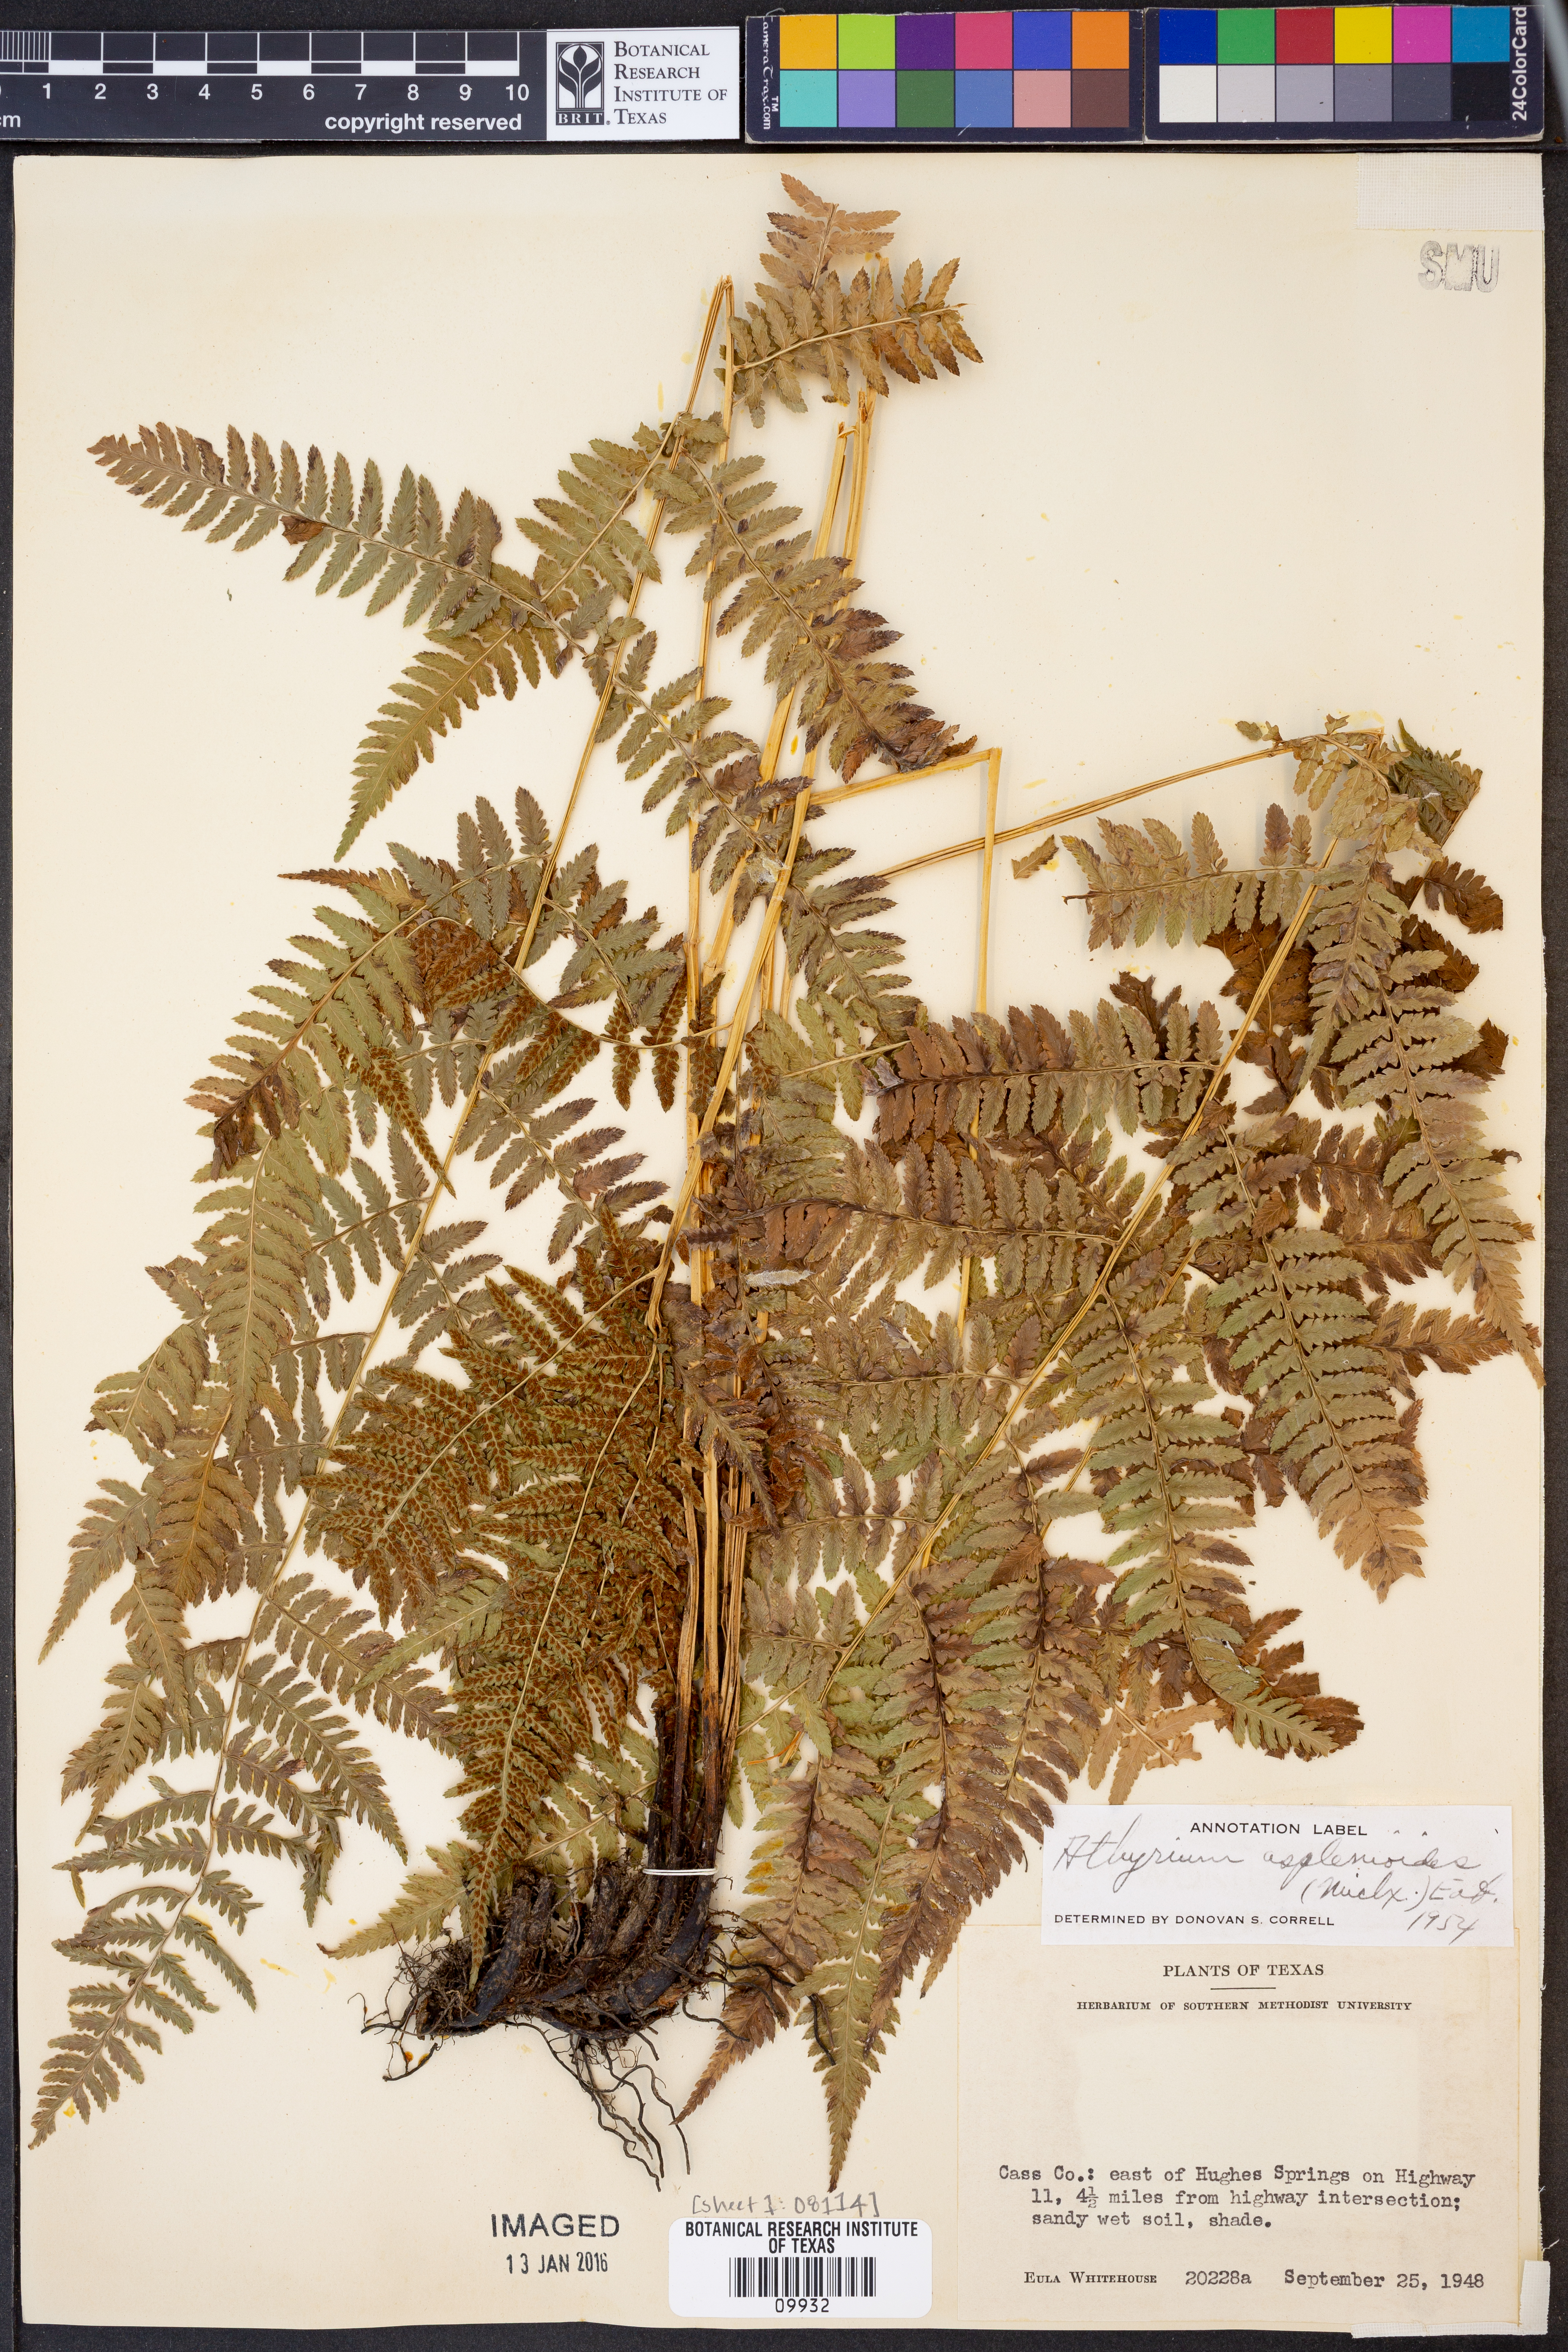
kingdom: Plantae
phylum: Tracheophyta
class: Polypodiopsida
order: Polypodiales
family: Athyriaceae
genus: Athyrium
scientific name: Athyrium asplenioides
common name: Southern lady fern
